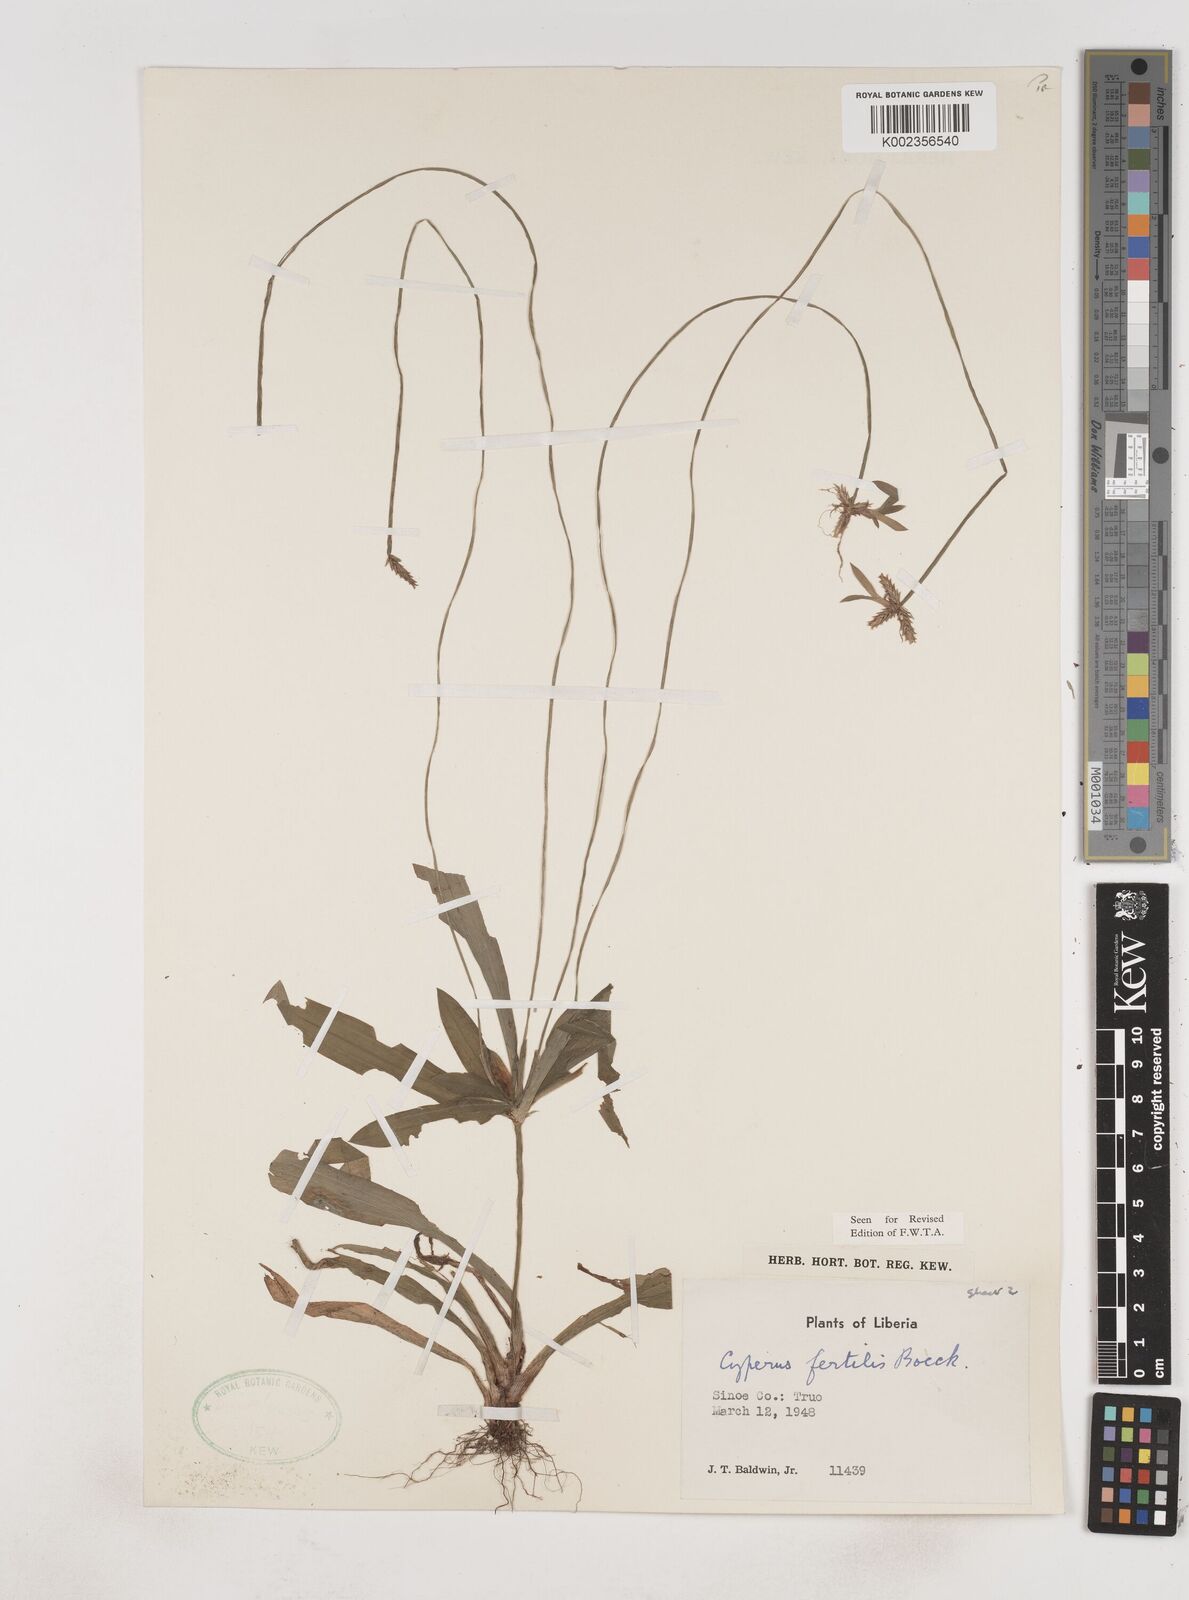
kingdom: Plantae
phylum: Tracheophyta
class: Liliopsida
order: Poales
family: Cyperaceae
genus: Cyperus
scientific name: Cyperus fertilis
